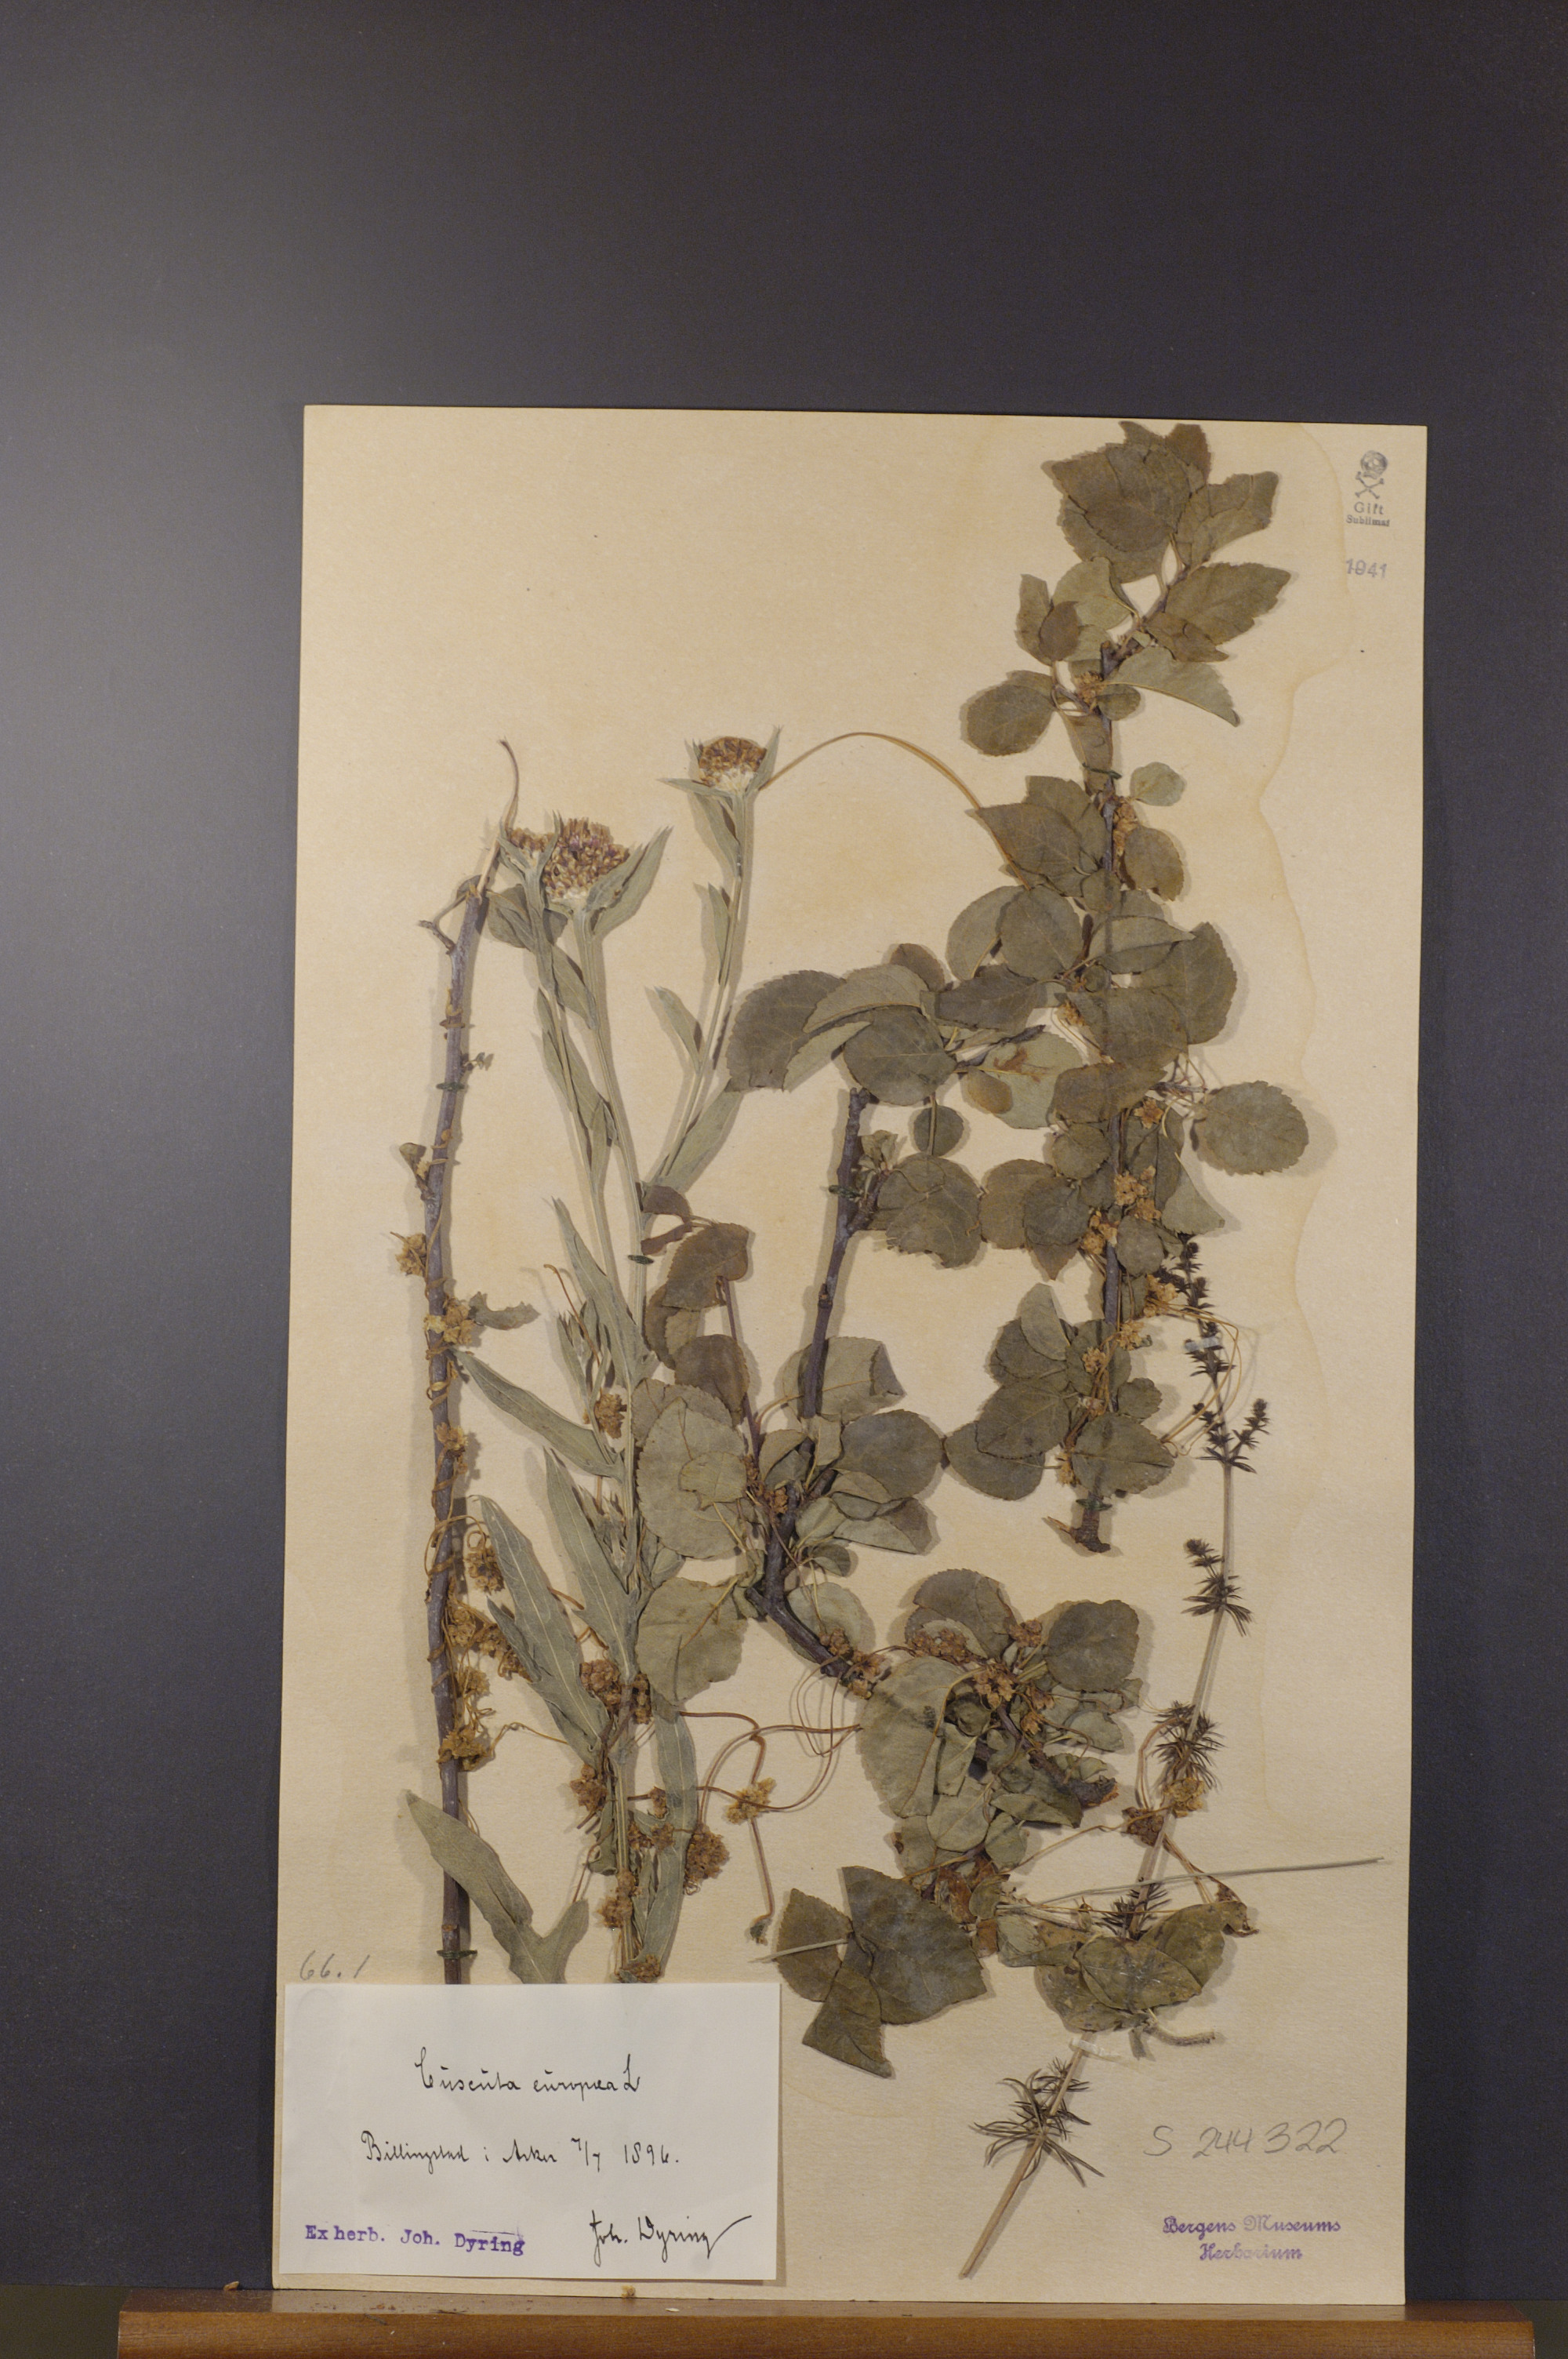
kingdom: Plantae
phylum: Tracheophyta
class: Magnoliopsida
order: Solanales
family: Convolvulaceae
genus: Cuscuta
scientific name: Cuscuta europaea
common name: Greater dodder
